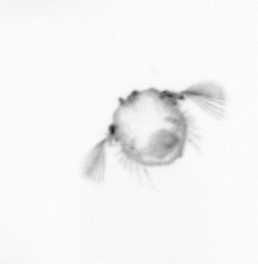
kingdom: Animalia
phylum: Arthropoda
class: Copepoda
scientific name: Copepoda
